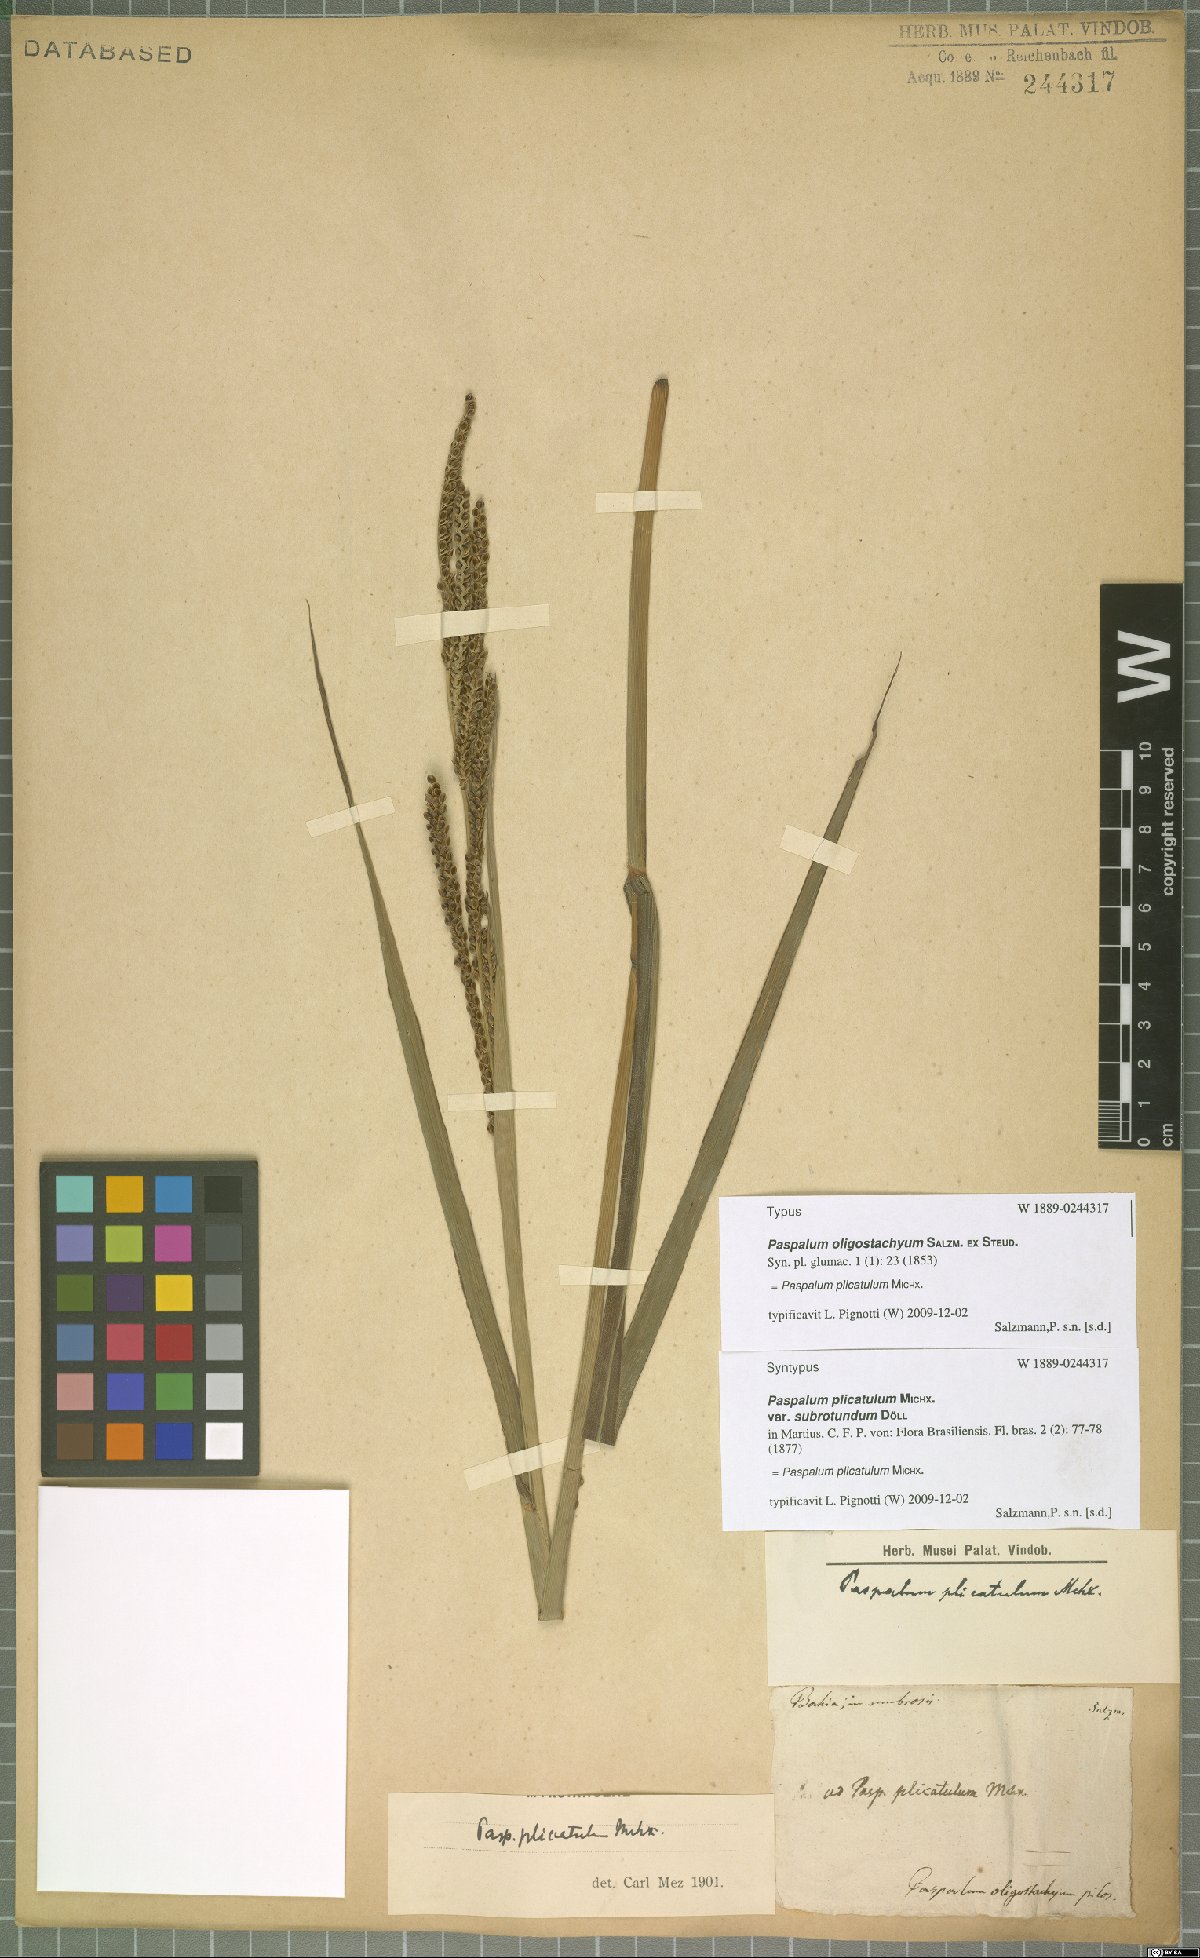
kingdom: Plantae
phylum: Tracheophyta
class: Liliopsida
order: Poales
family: Poaceae
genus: Paspalum
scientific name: Paspalum plicatulum
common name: Top paspalum
